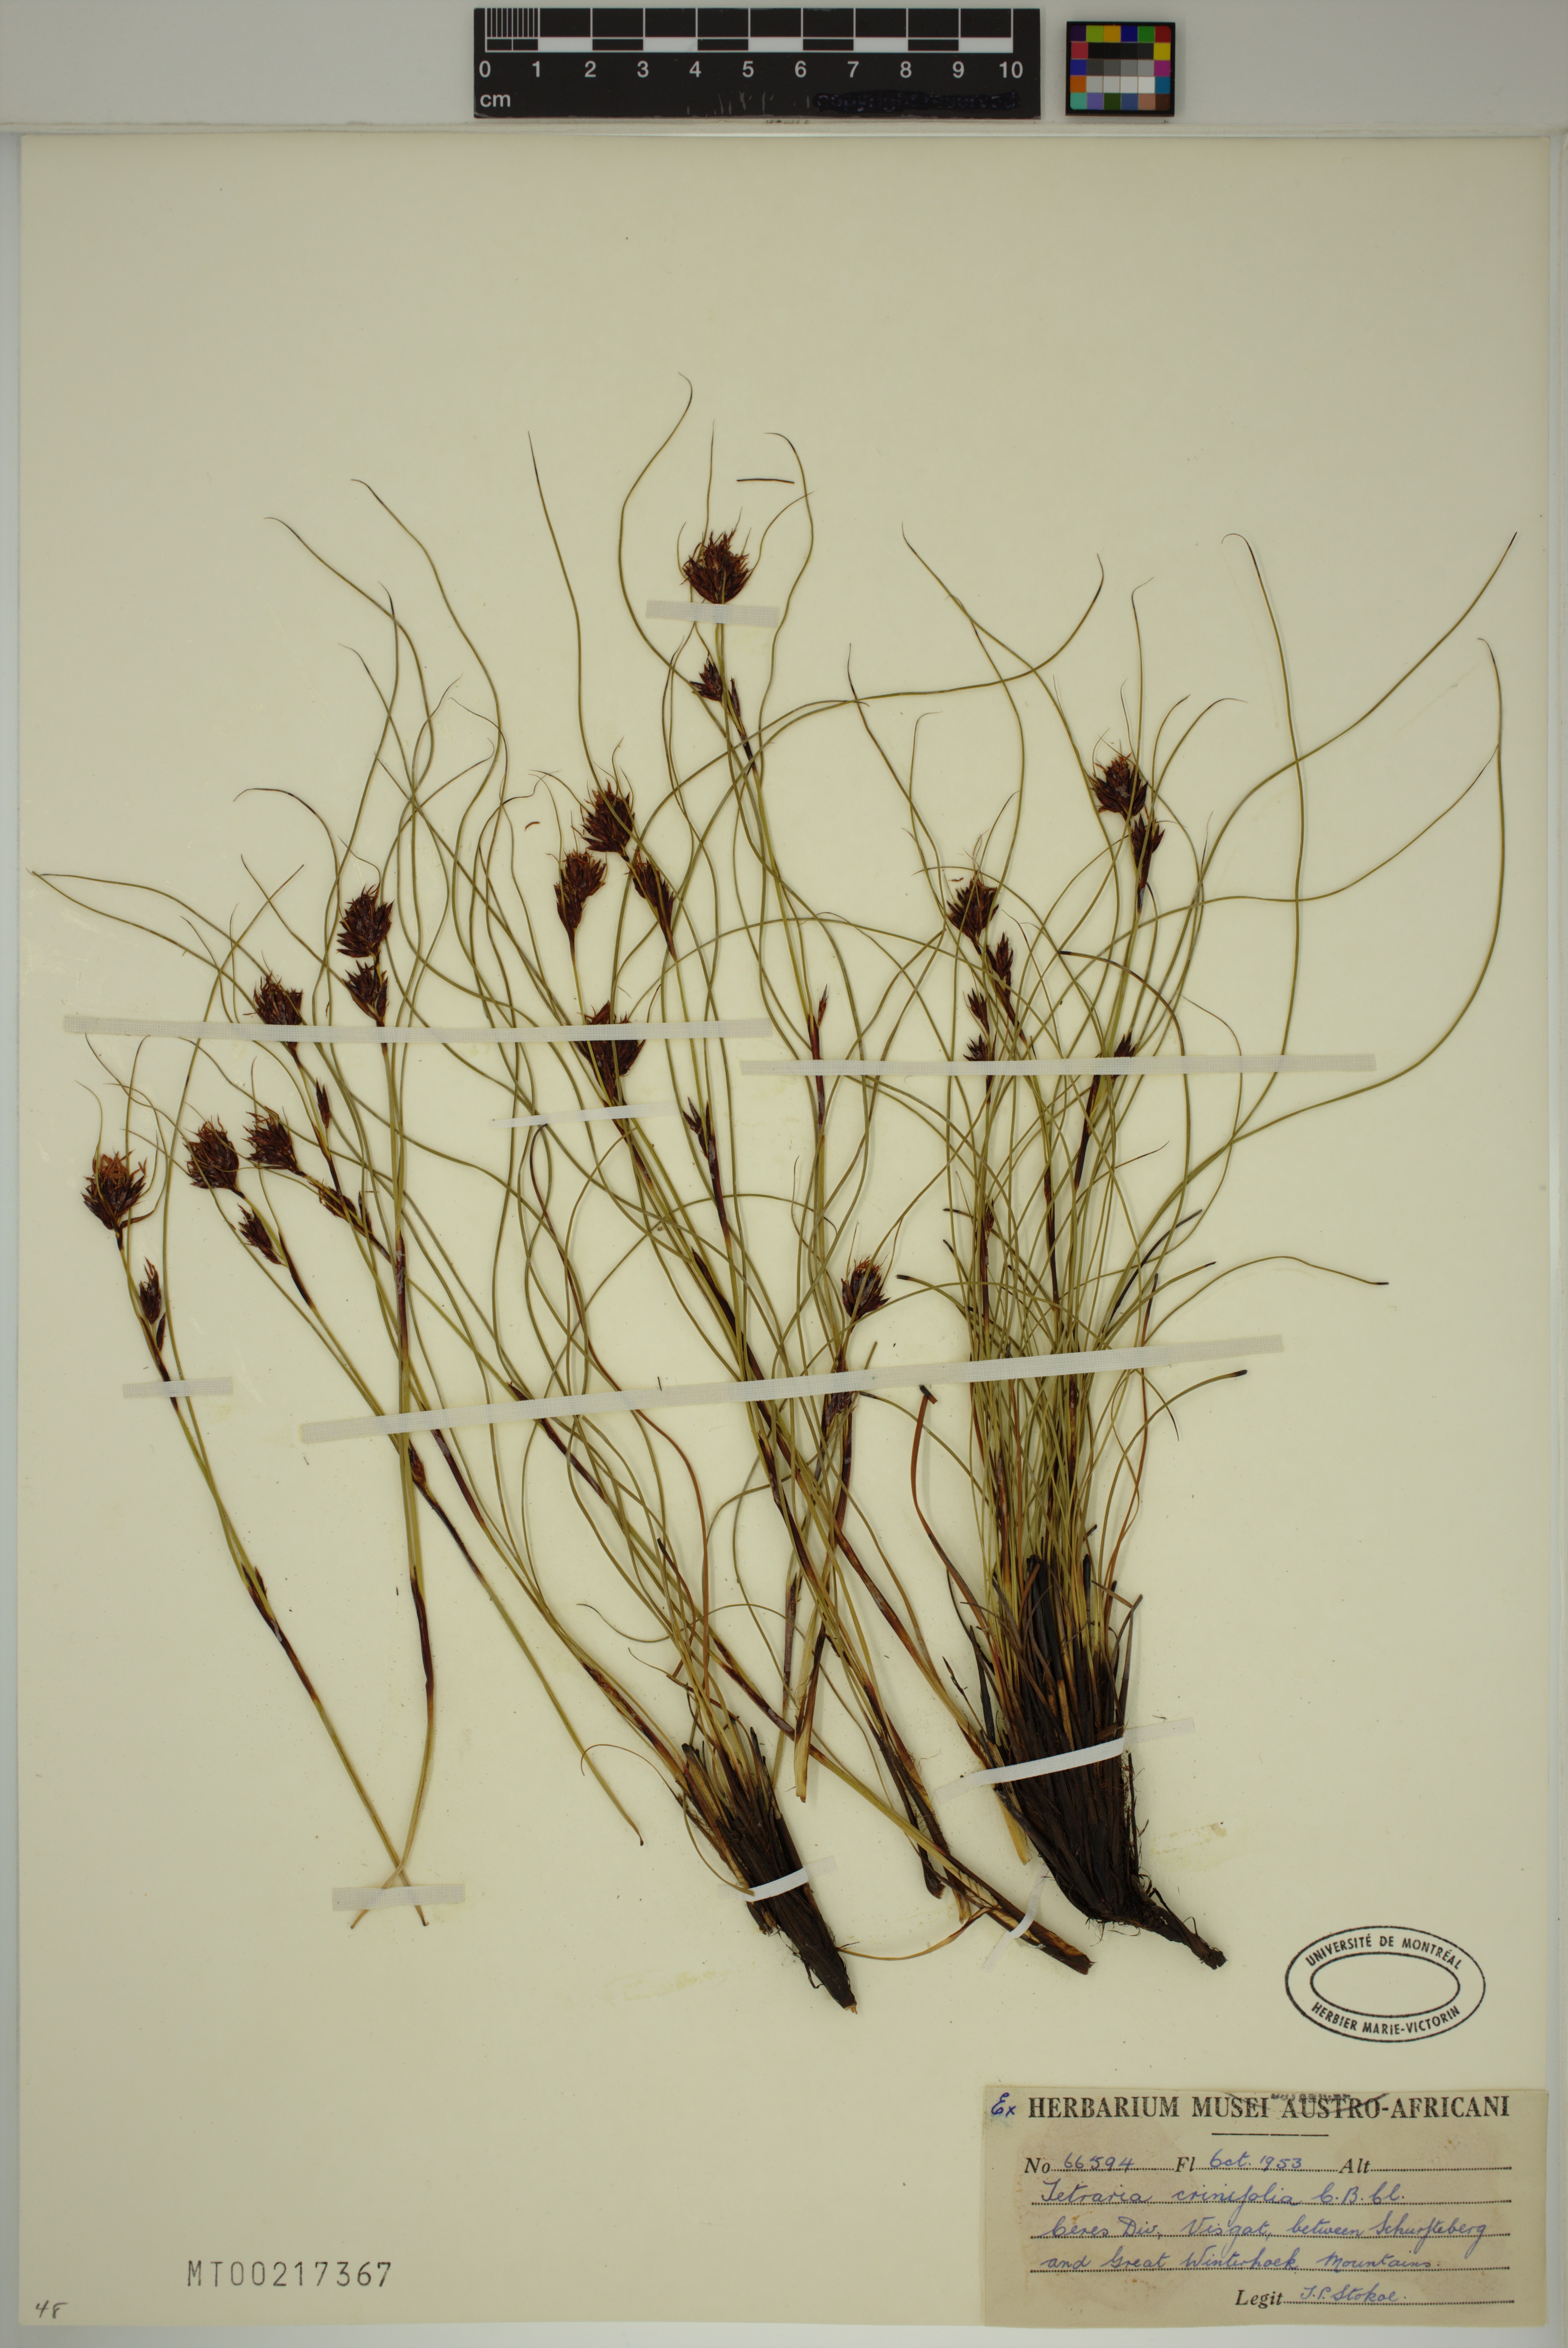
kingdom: Plantae
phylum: Tracheophyta
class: Liliopsida
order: Poales
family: Cyperaceae
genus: Tetraria
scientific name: Tetraria crinifolia
